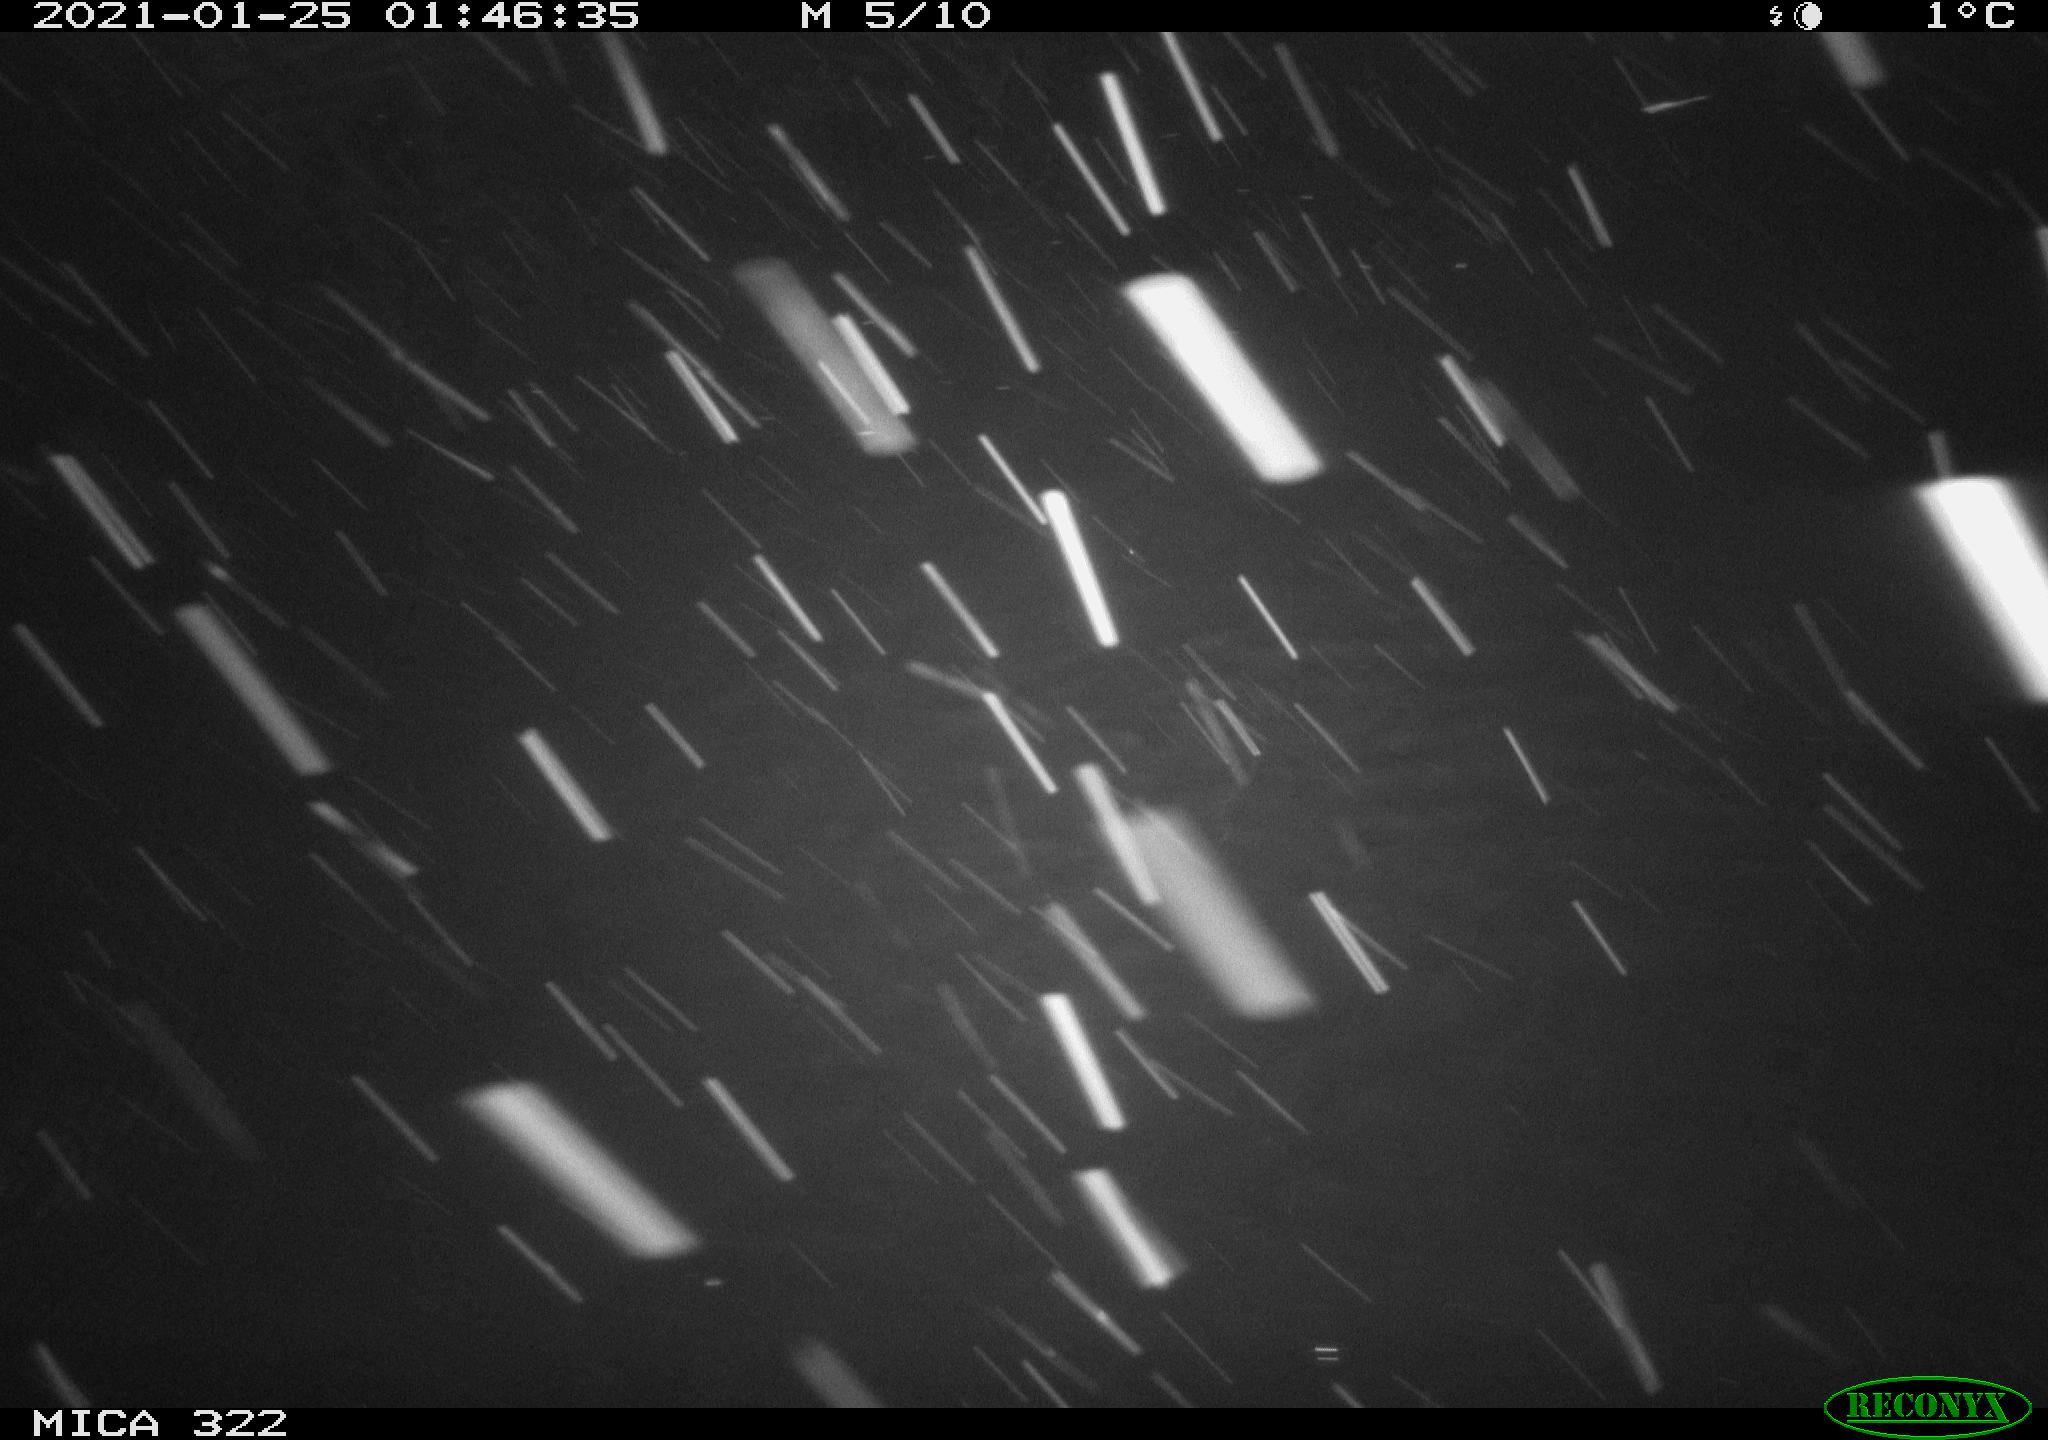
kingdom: Animalia
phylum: Chordata
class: Mammalia
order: Rodentia
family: Muridae
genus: Rattus
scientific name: Rattus norvegicus
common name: Brown rat
